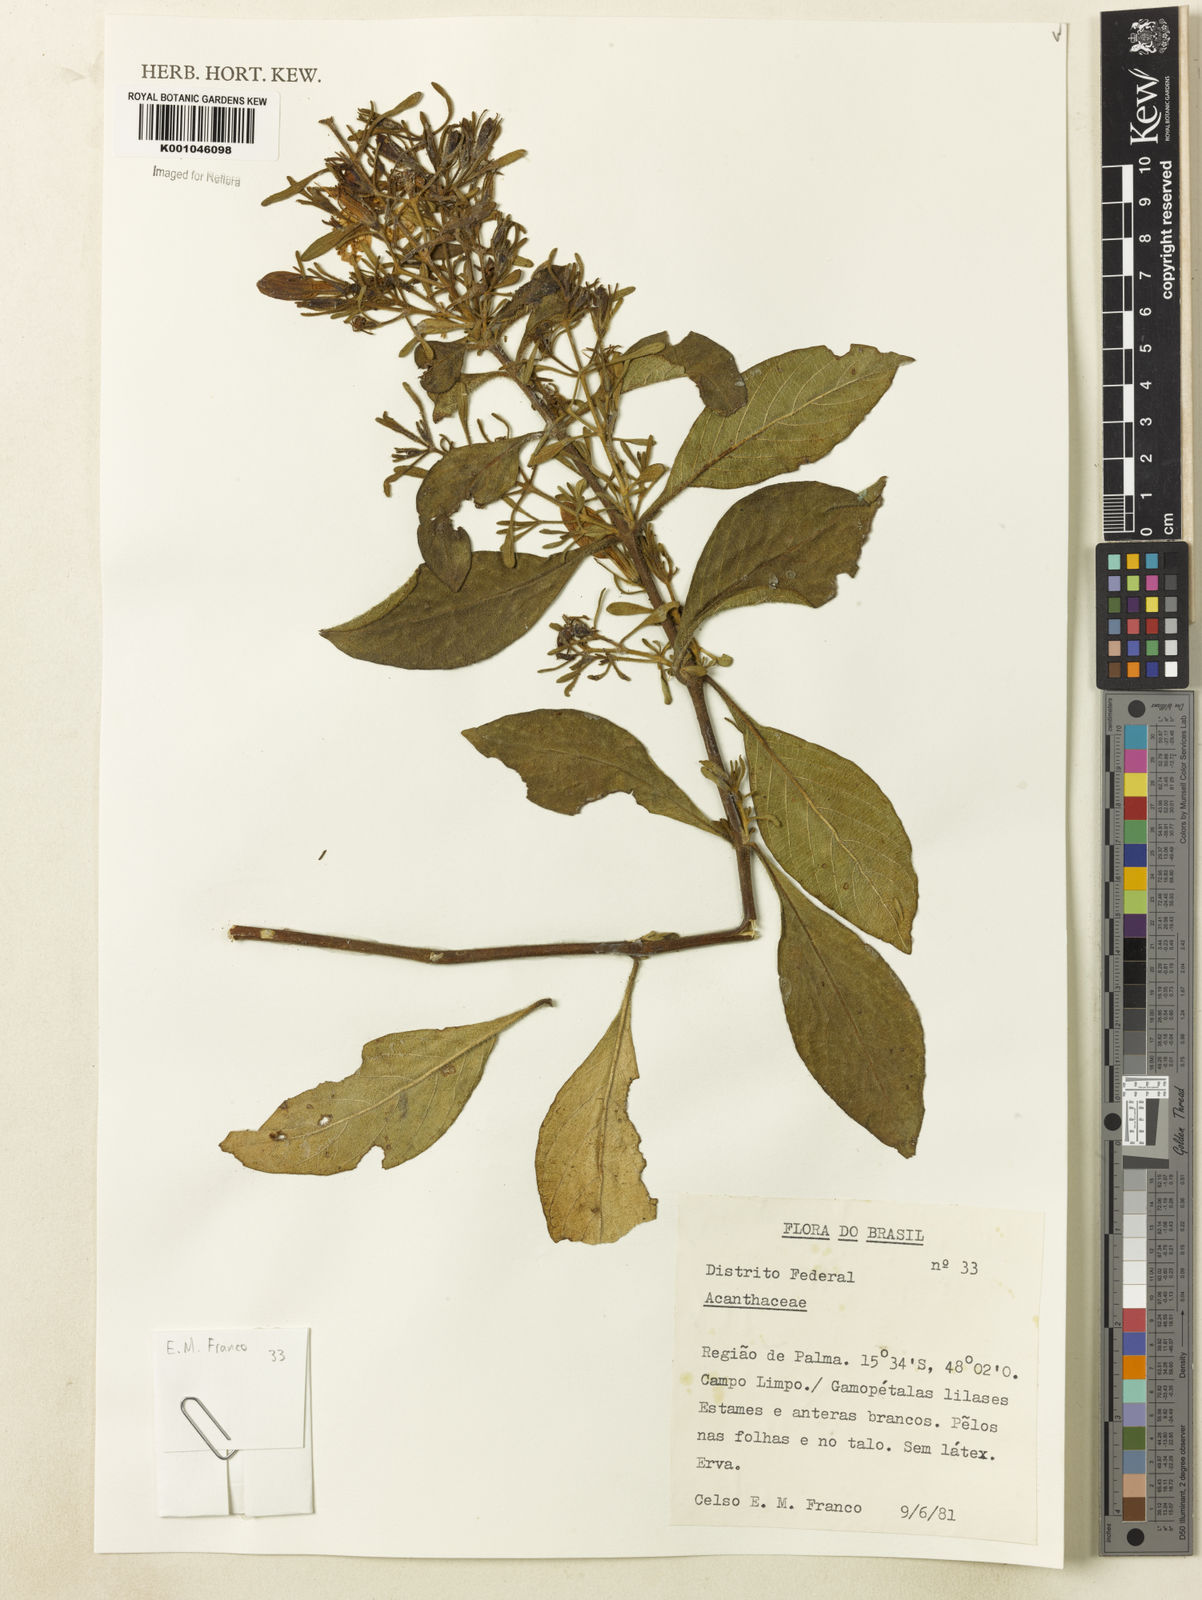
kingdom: Plantae
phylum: Tracheophyta
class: Magnoliopsida
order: Lamiales
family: Acanthaceae
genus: Ruellia
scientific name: Ruellia
